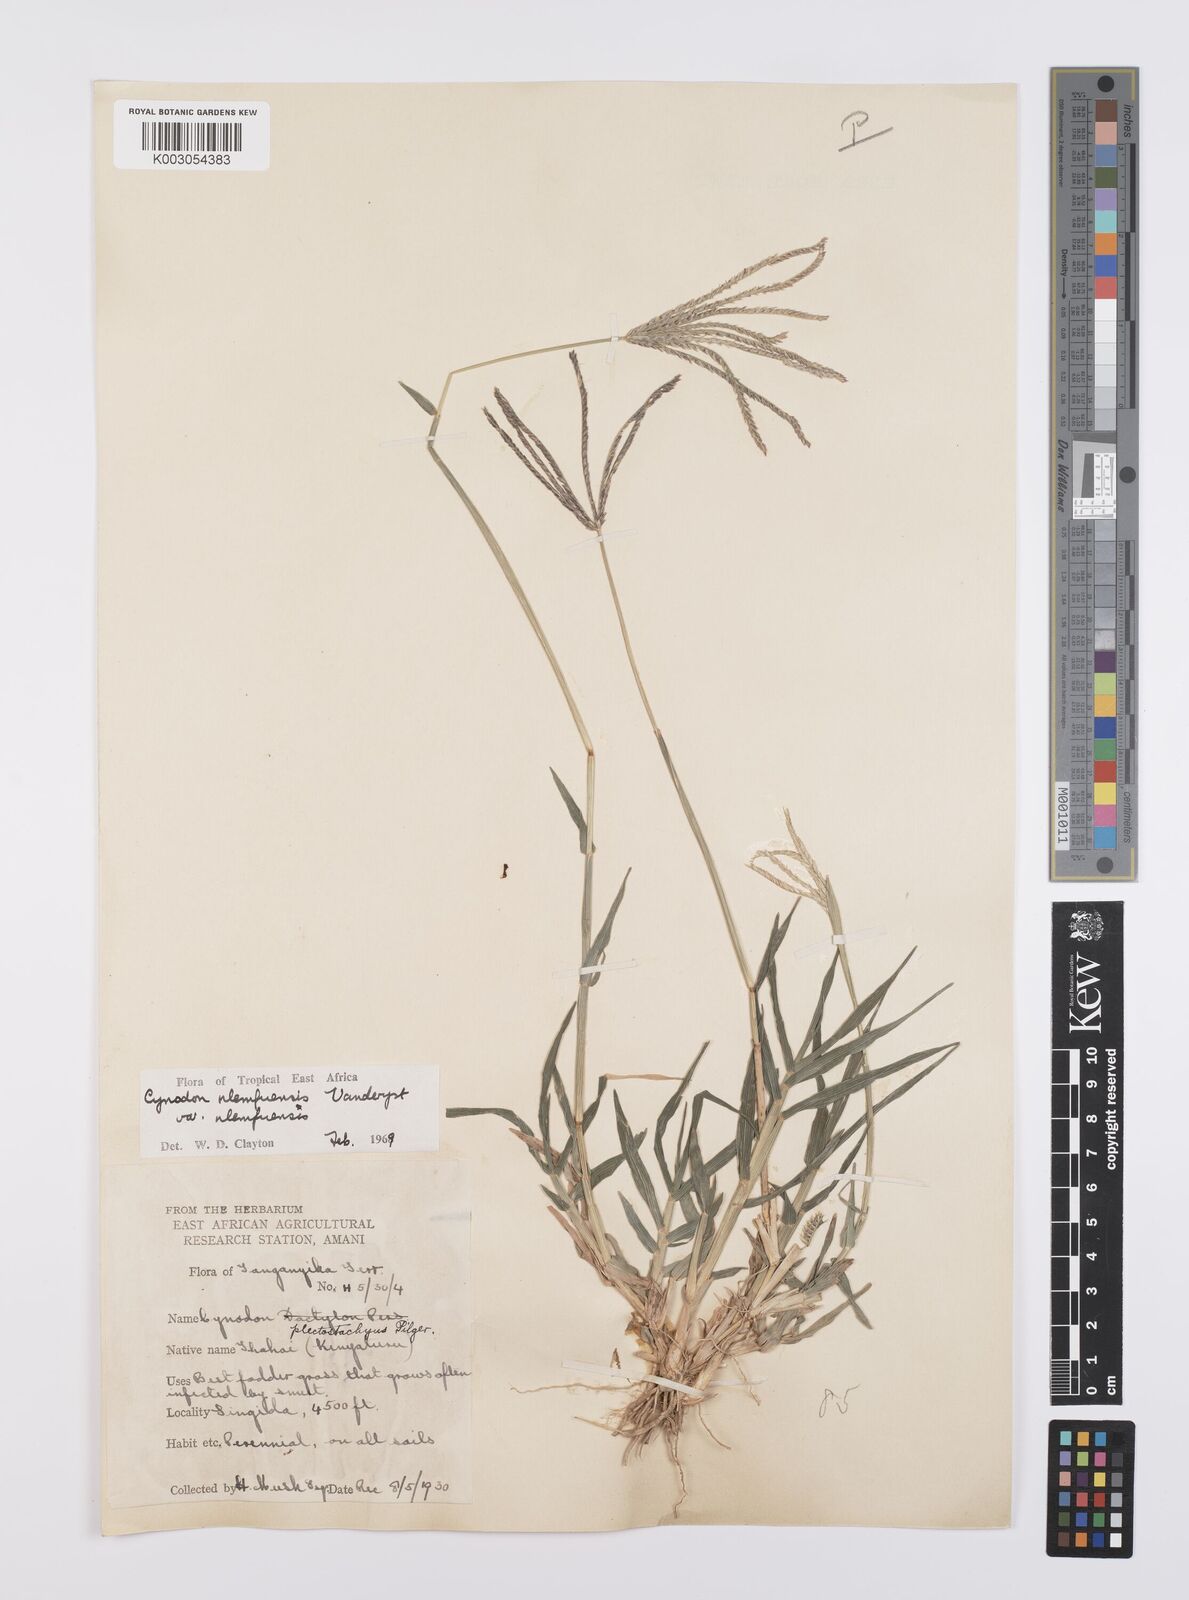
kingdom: Plantae
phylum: Tracheophyta
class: Liliopsida
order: Poales
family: Poaceae
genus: Cynodon
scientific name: Cynodon nlemfuensis
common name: African bermudagrass
